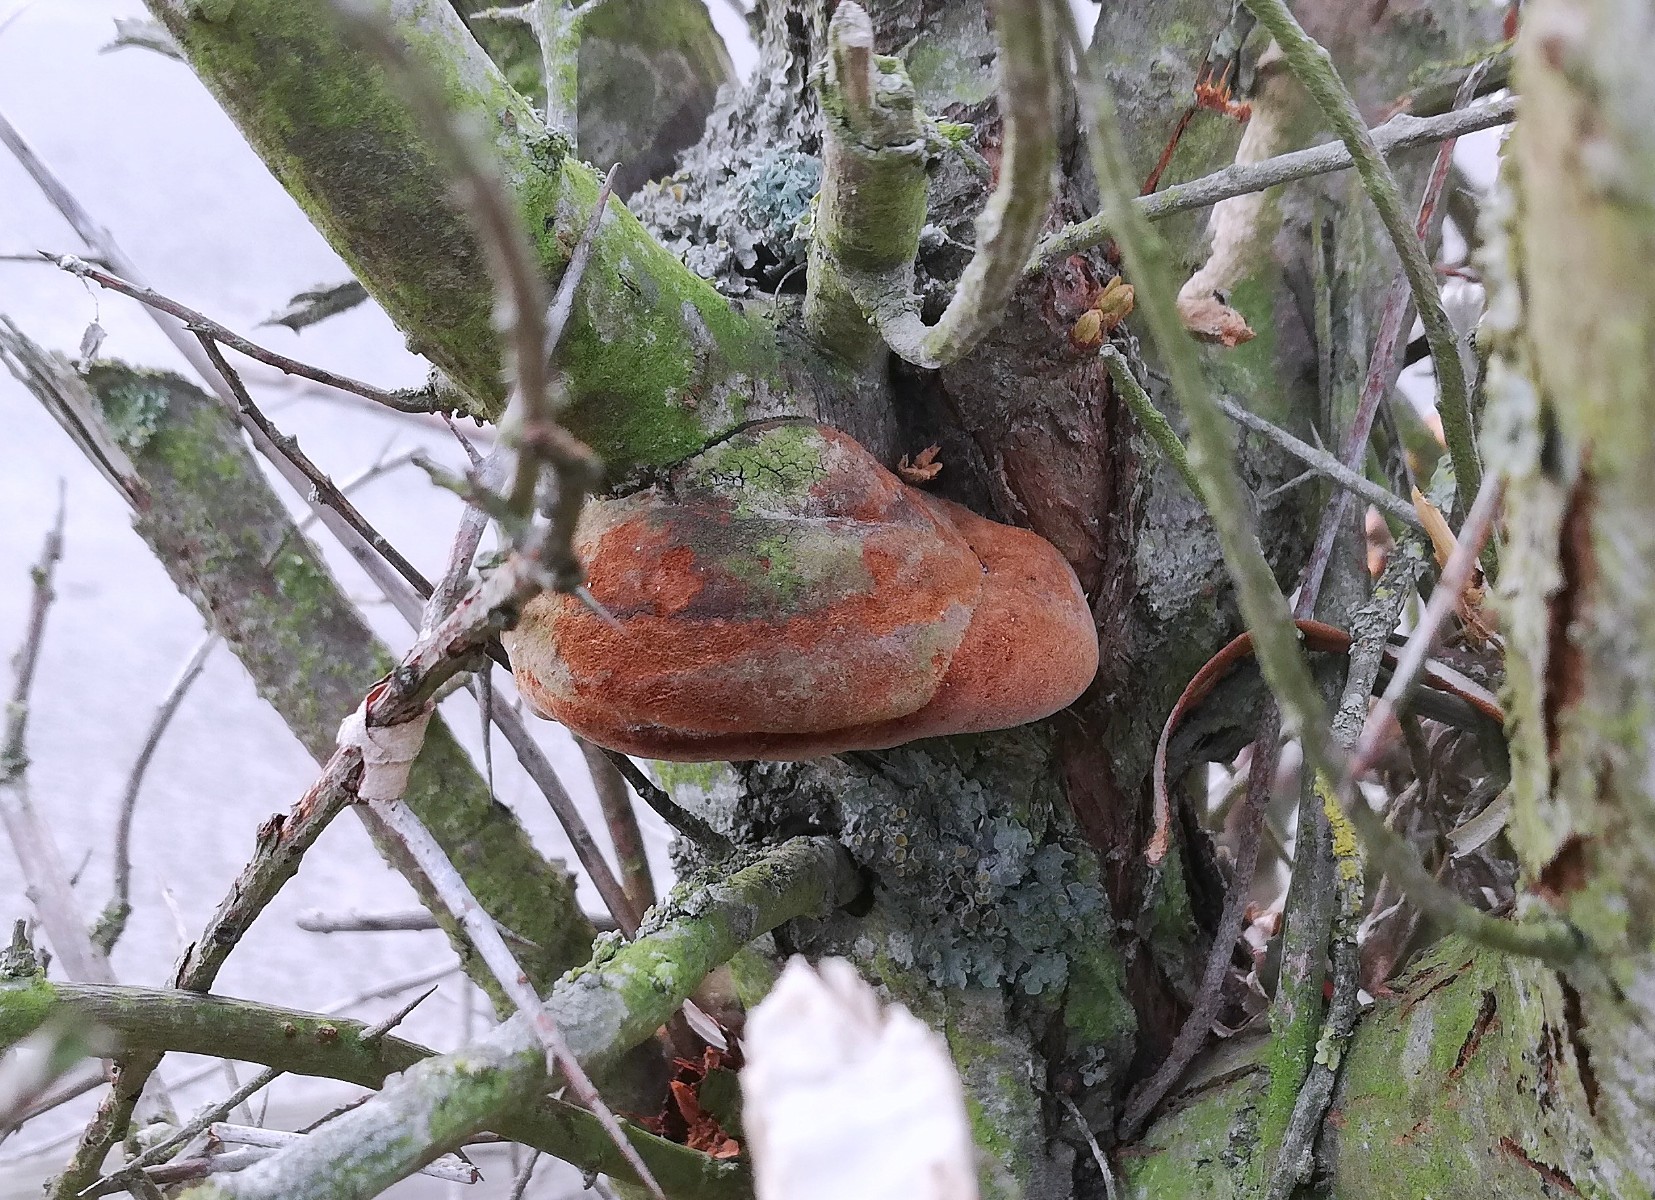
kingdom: Fungi
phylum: Basidiomycota
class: Agaricomycetes
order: Hymenochaetales
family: Hymenochaetaceae
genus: Fomitiporia
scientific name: Fomitiporia hippophaeicola
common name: havtorn-ildporesvamp
